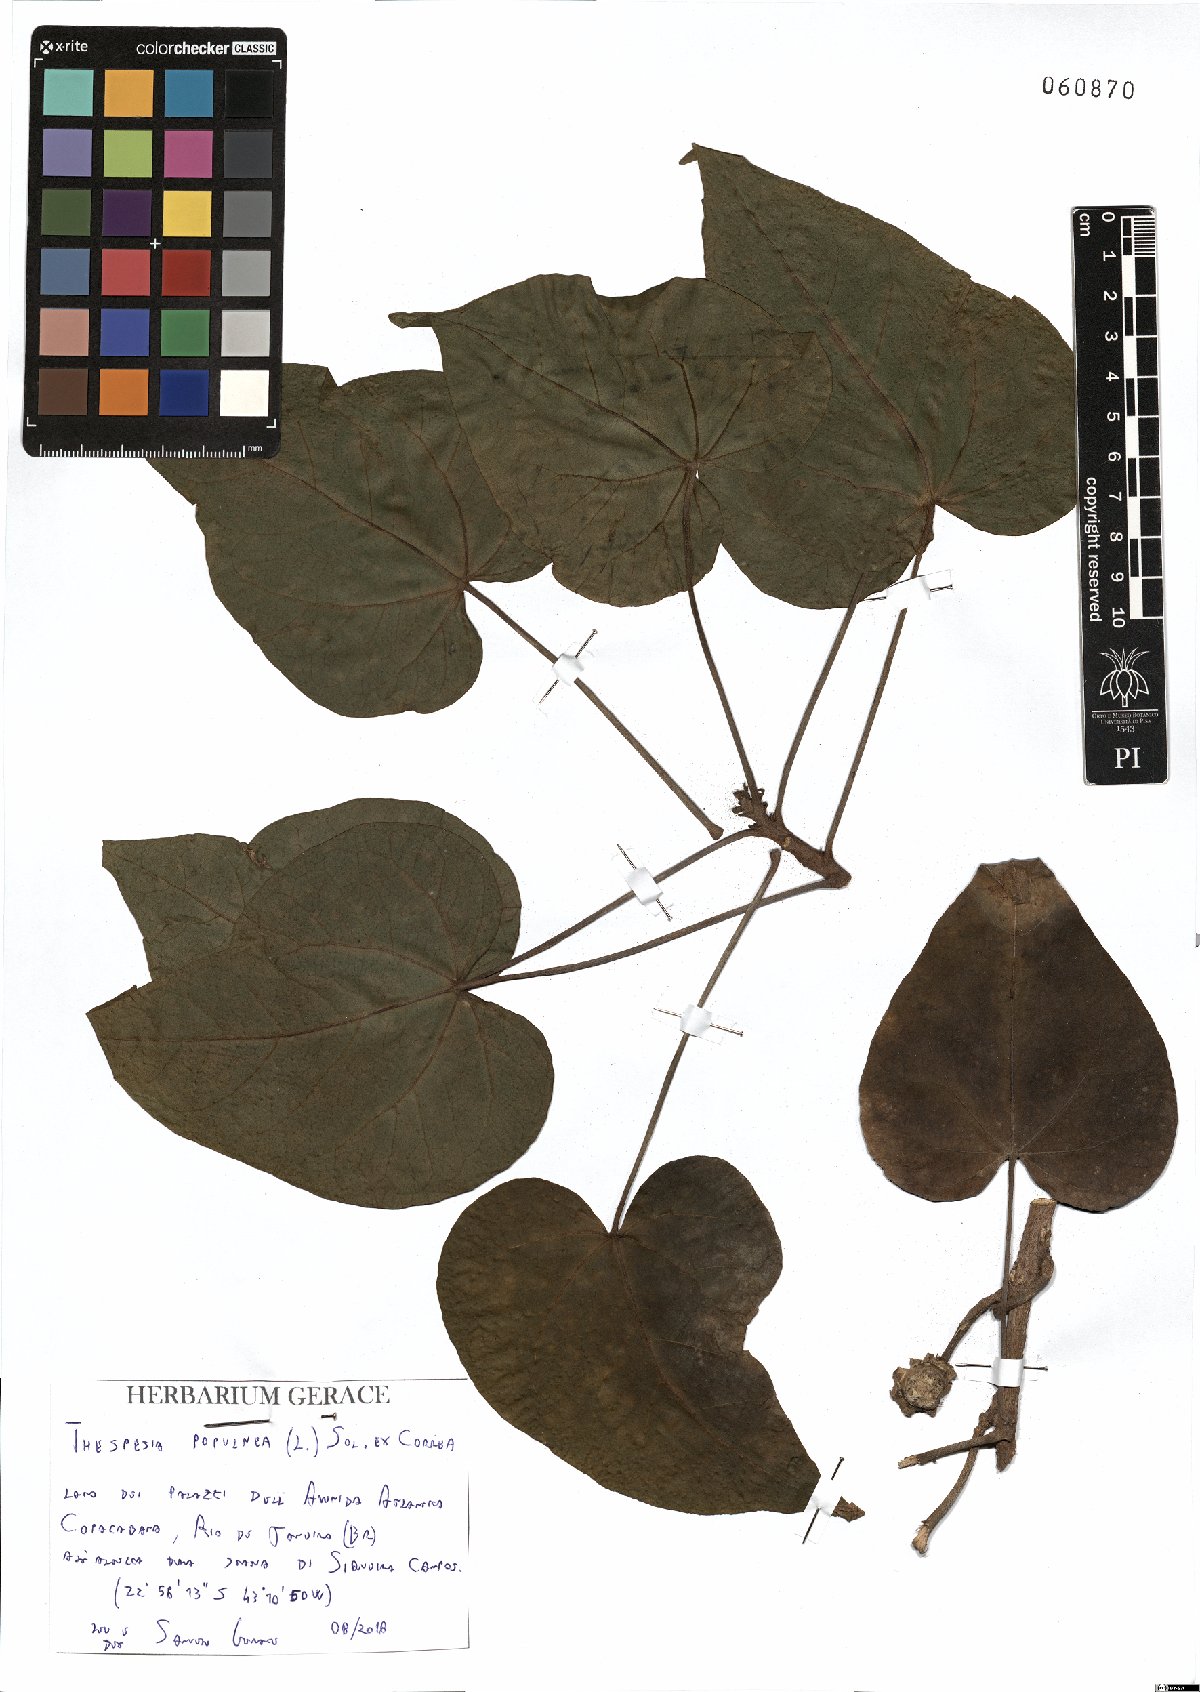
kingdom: Plantae
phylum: Tracheophyta
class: Magnoliopsida
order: Malvales
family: Malvaceae
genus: Thespesia
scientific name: Thespesia populnea
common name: Seaside mahoe
